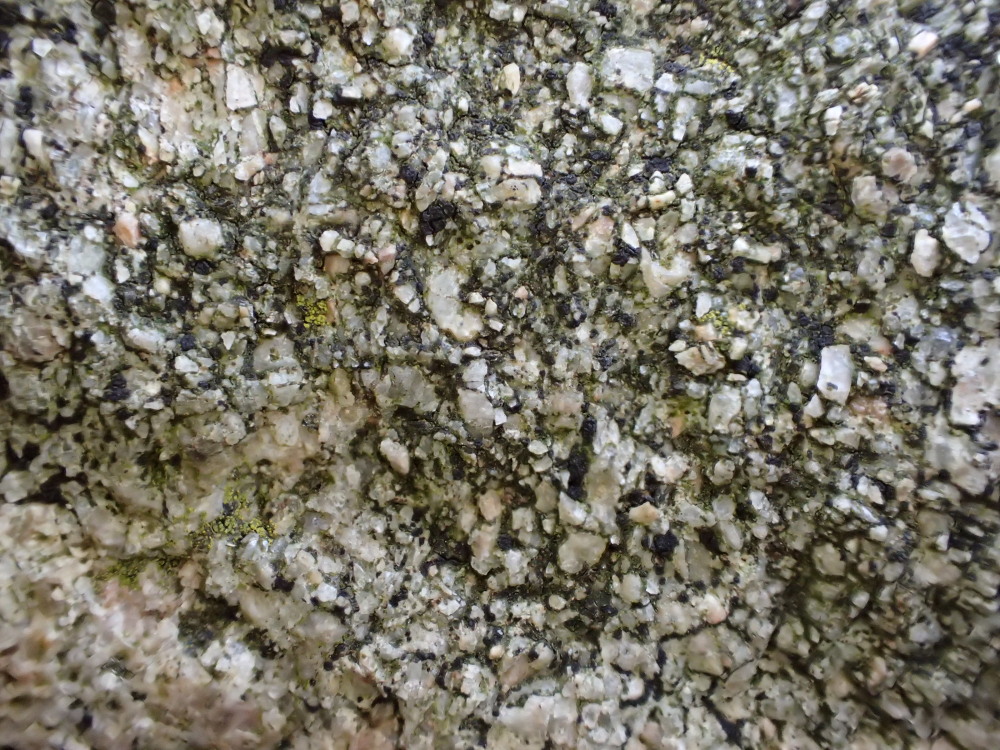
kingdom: Fungi
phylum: Ascomycota
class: Lecanoromycetes
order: Acarosporales
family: Acarosporaceae
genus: Acarospora
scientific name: Acarospora privigna
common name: sort foldekantlav
